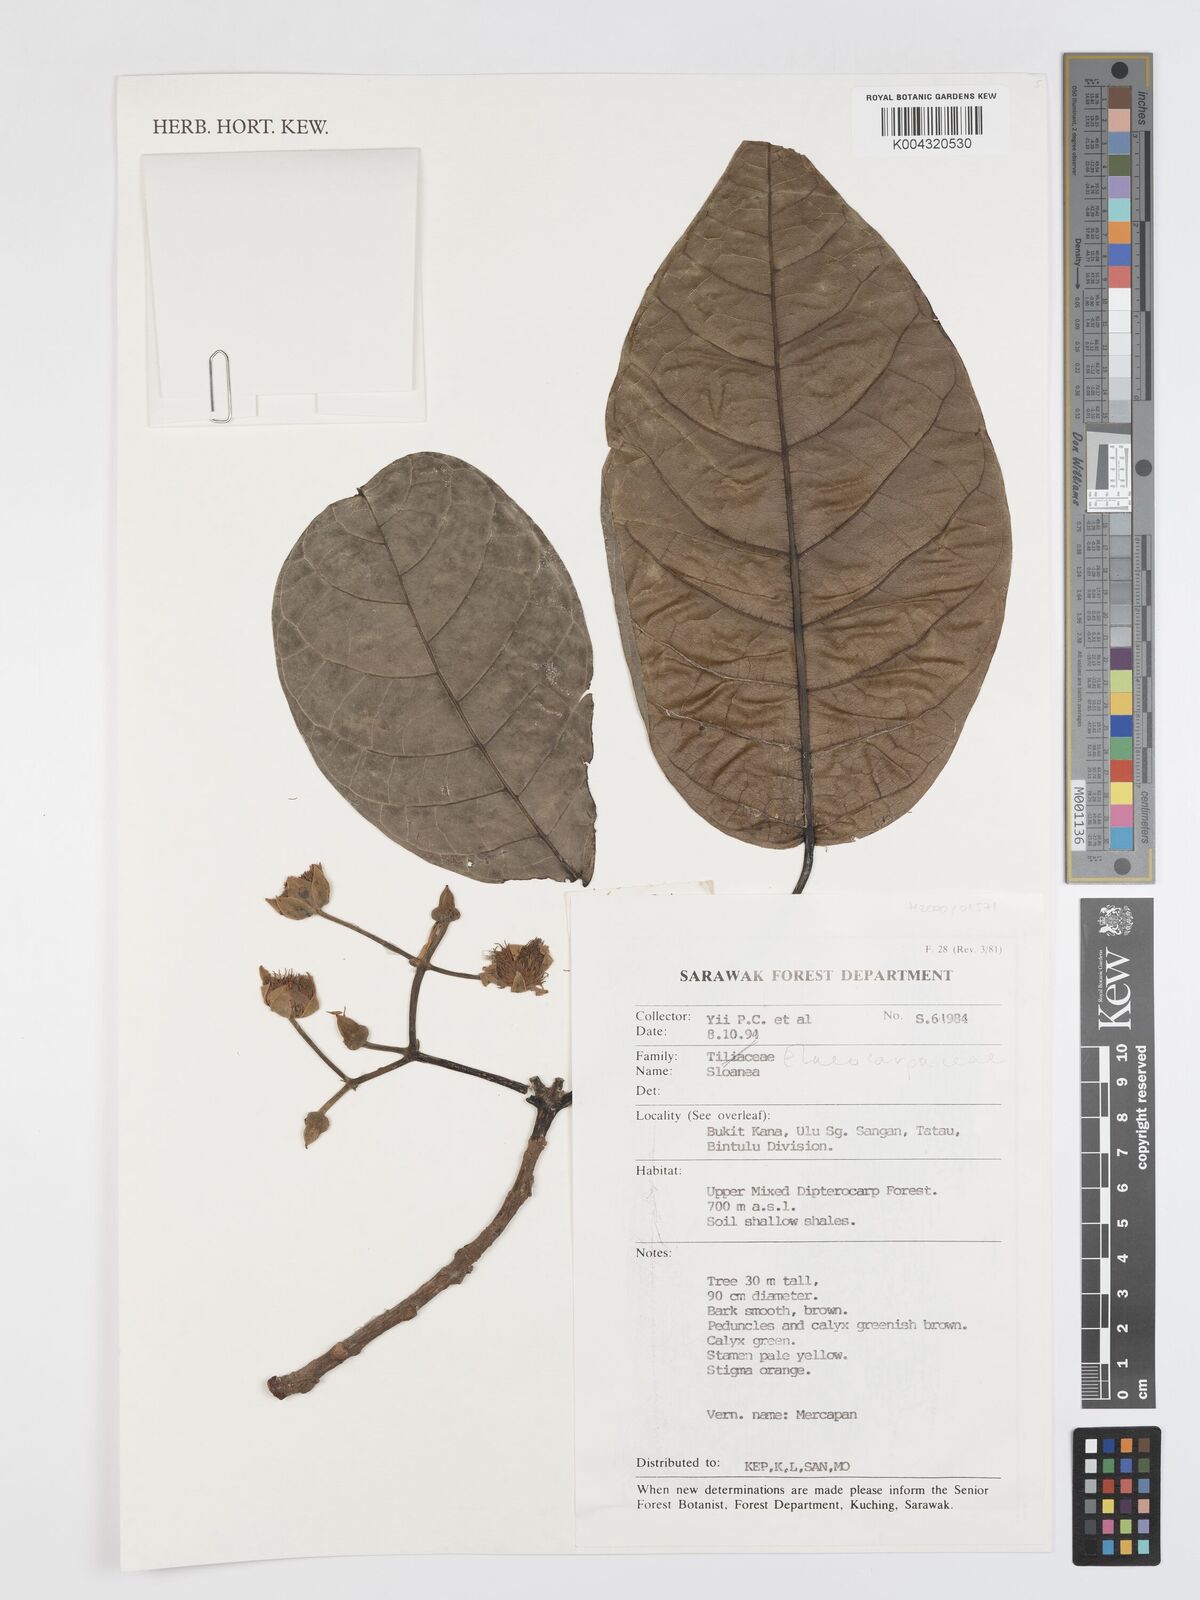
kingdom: Plantae
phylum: Tracheophyta
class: Magnoliopsida
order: Oxalidales
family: Elaeocarpaceae
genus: Sloanea
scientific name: Sloanea
